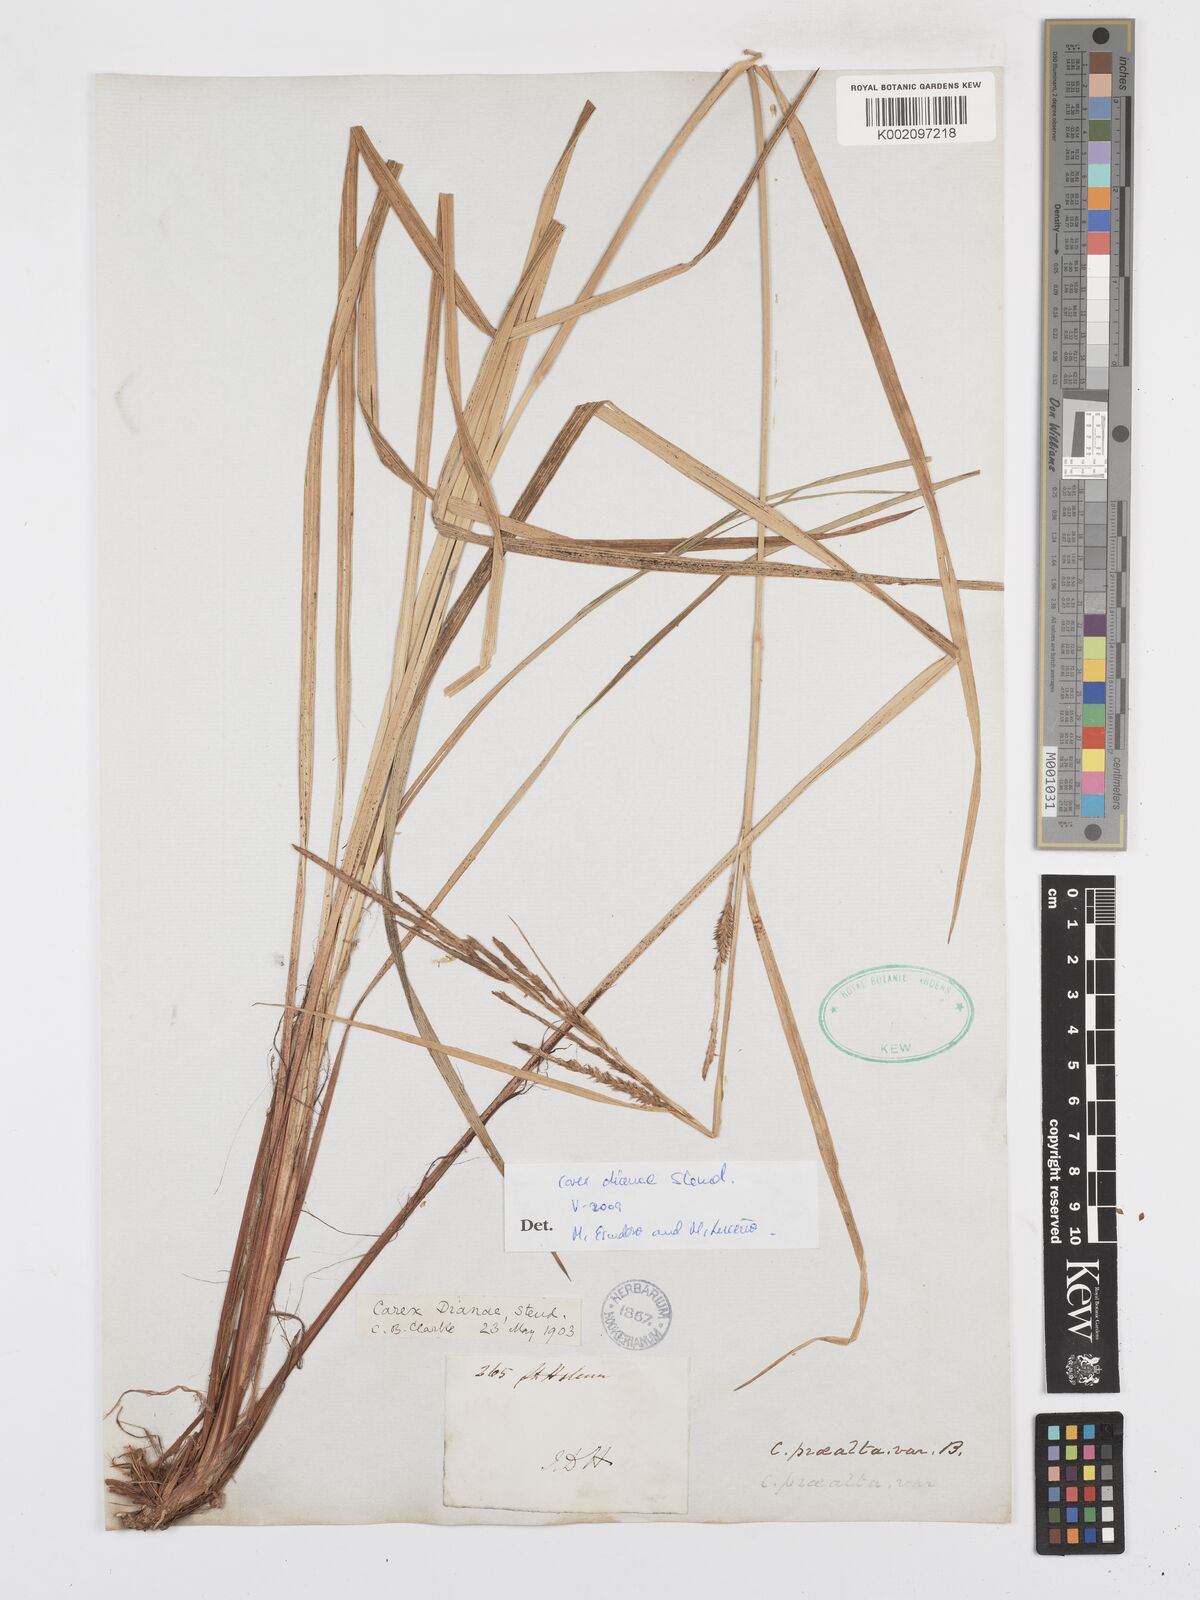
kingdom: Plantae
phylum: Tracheophyta
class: Liliopsida
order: Poales
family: Cyperaceae
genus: Carex
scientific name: Carex dianae
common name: Diana's peak grass
